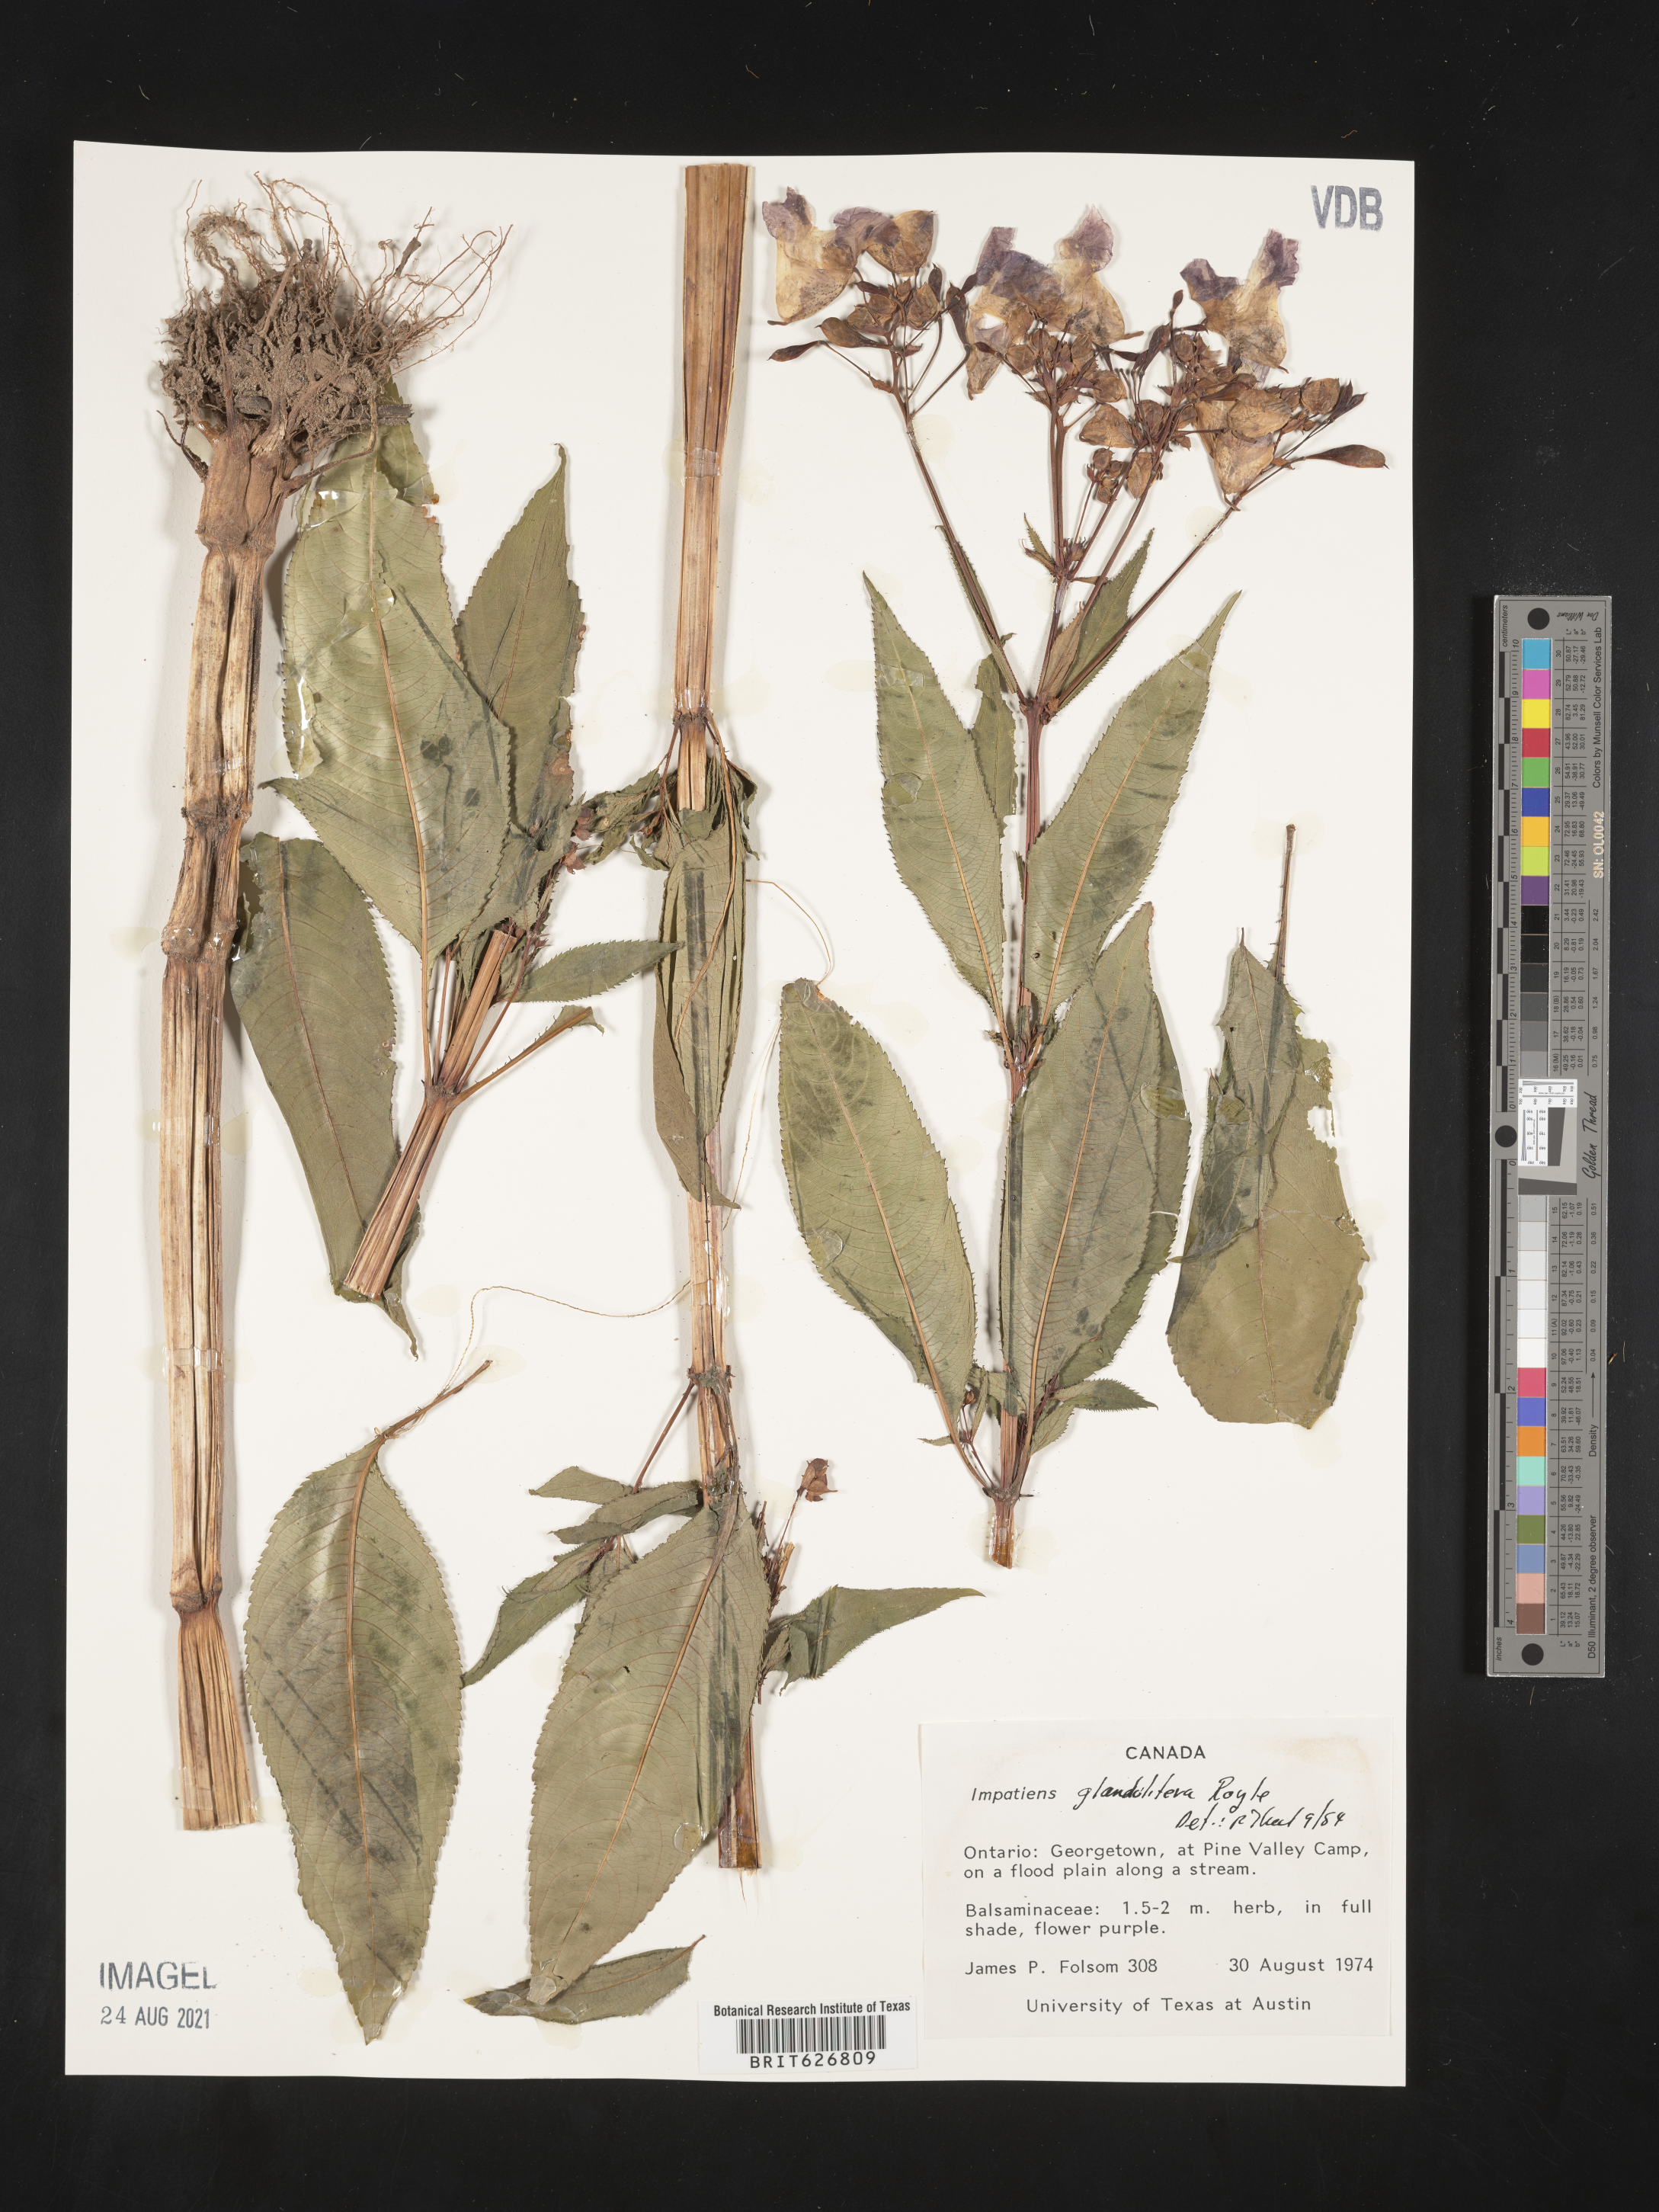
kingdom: Plantae
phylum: Tracheophyta
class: Magnoliopsida
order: Ericales
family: Balsaminaceae
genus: Impatiens
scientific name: Impatiens humblotiana
